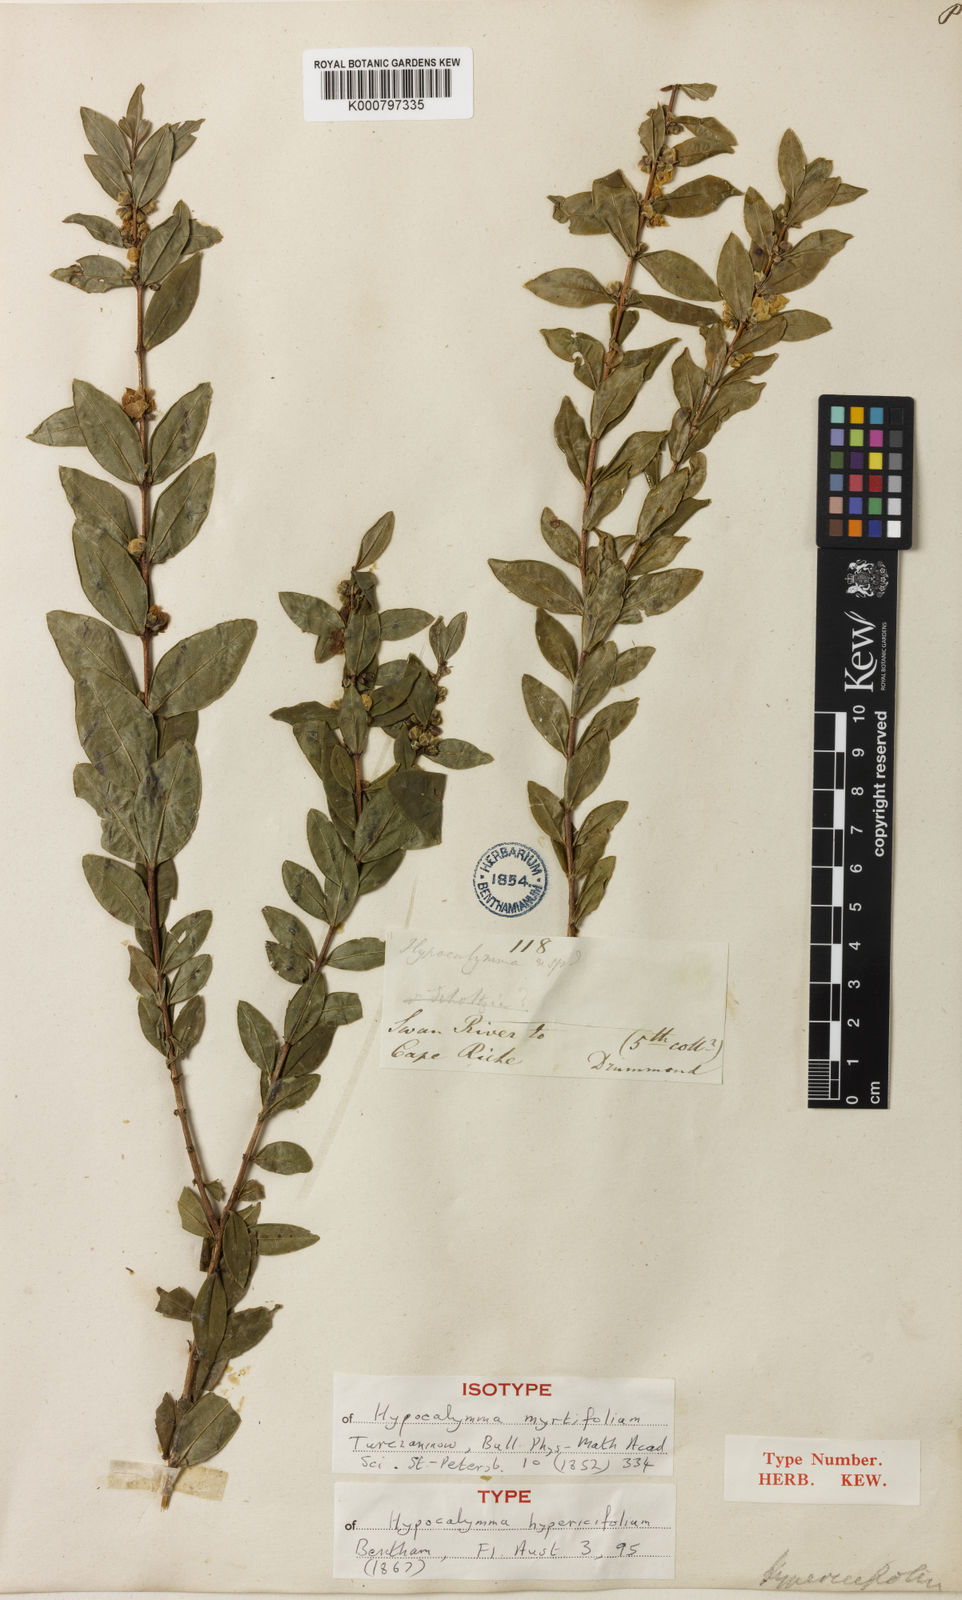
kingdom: Plantae
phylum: Tracheophyta
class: Magnoliopsida
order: Myrtales
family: Myrtaceae
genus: Hypocalymma
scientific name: Hypocalymma myrtifolium
